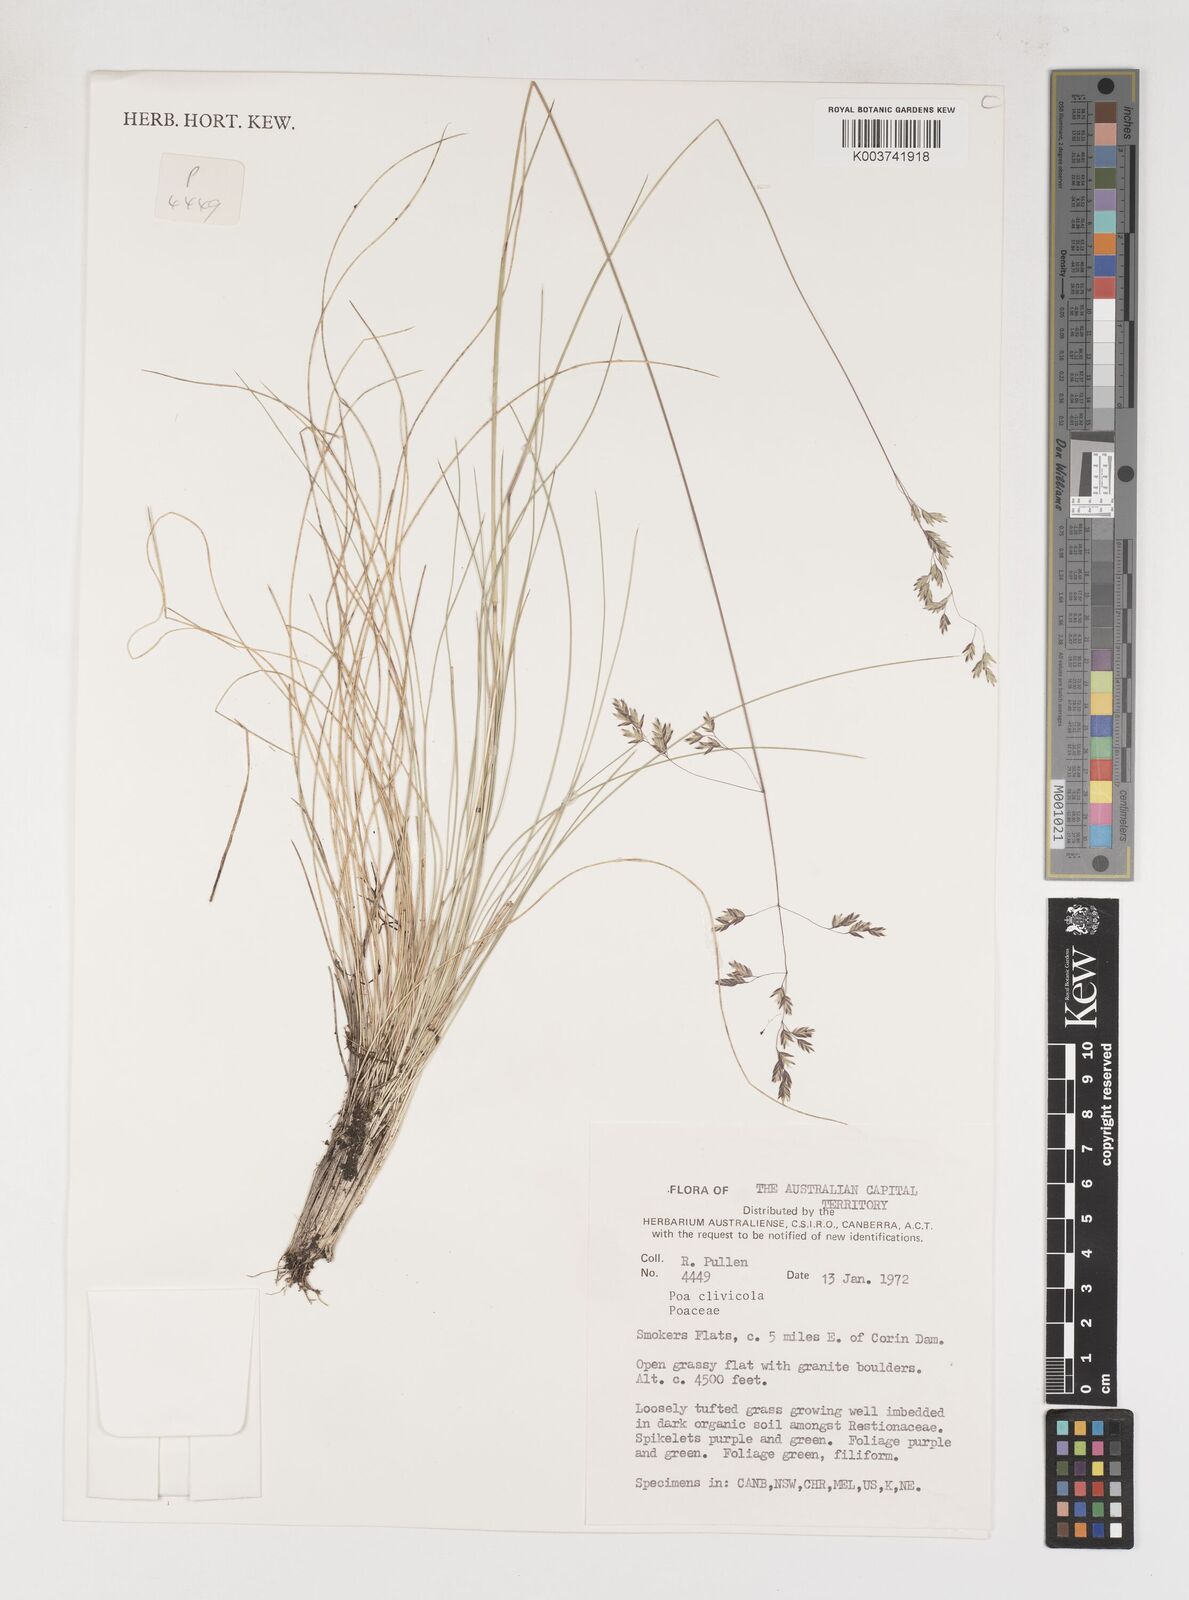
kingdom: Plantae
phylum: Tracheophyta
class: Liliopsida
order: Poales
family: Poaceae
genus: Poa
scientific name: Poa clivicola
